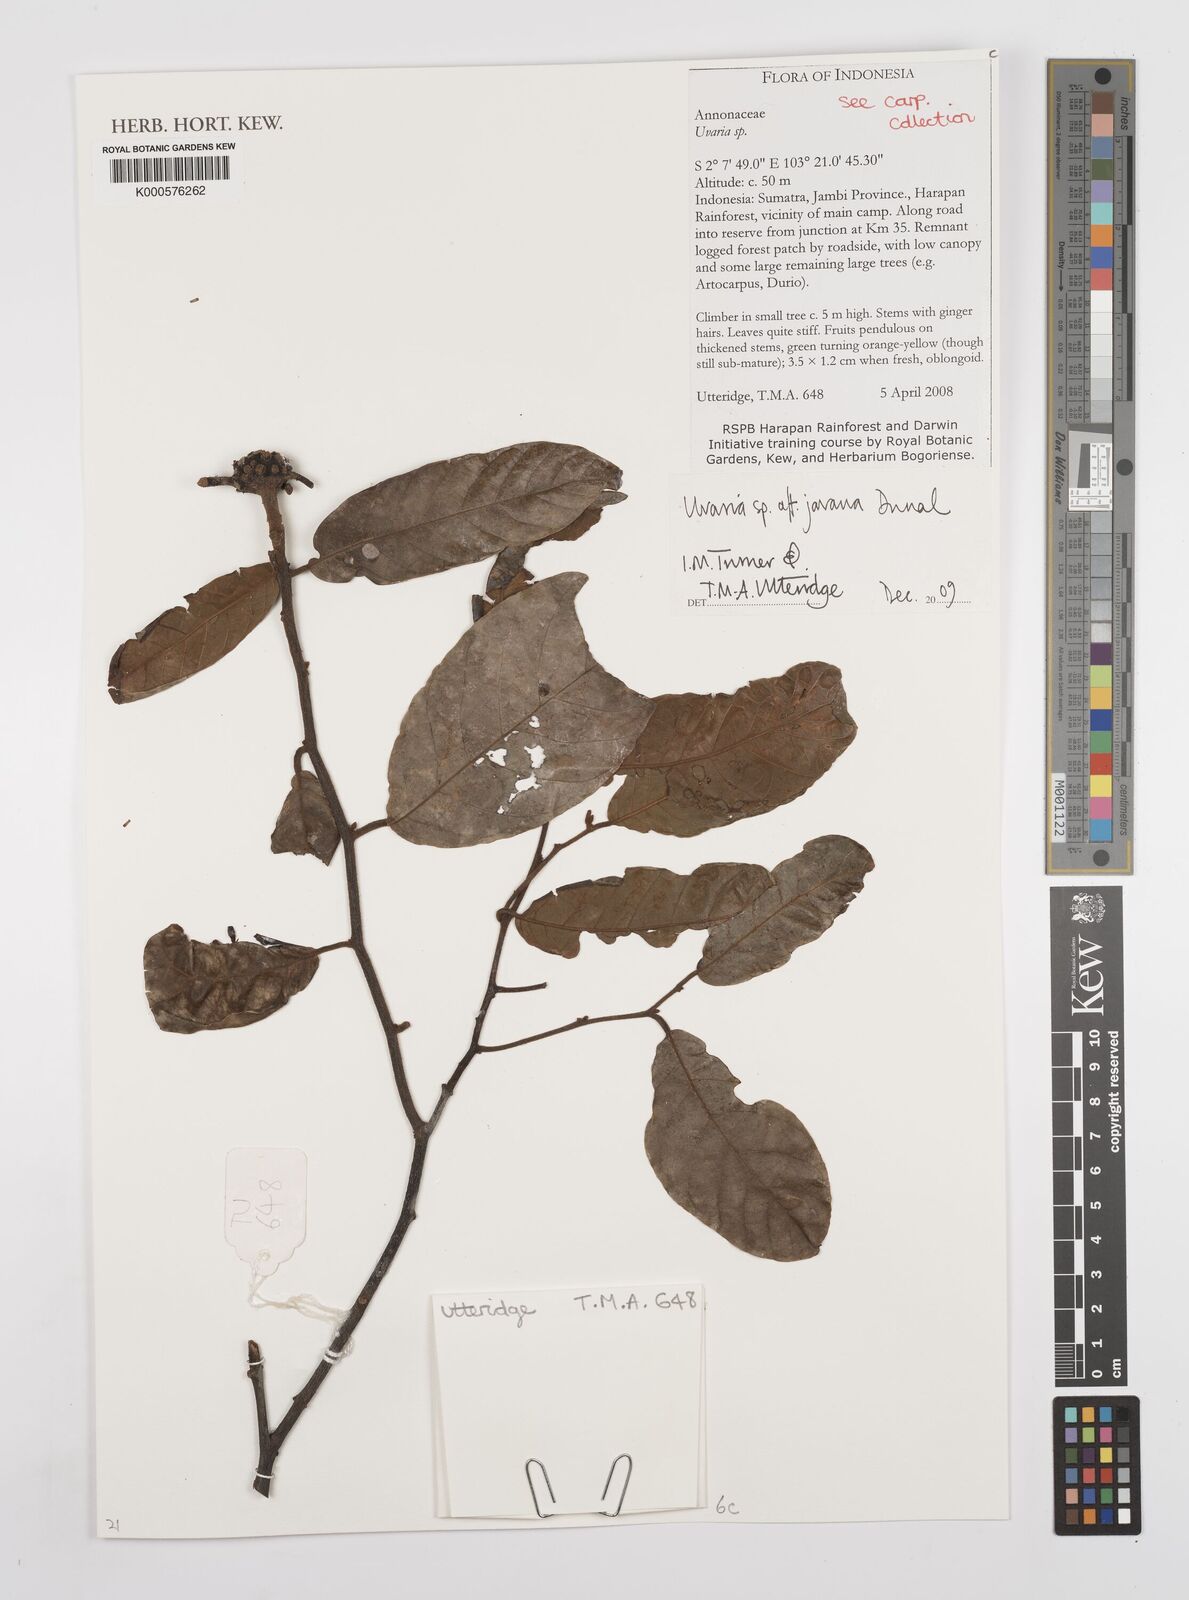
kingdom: Plantae
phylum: Tracheophyta
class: Magnoliopsida
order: Magnoliales
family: Annonaceae
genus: Uvaria
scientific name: Uvaria
